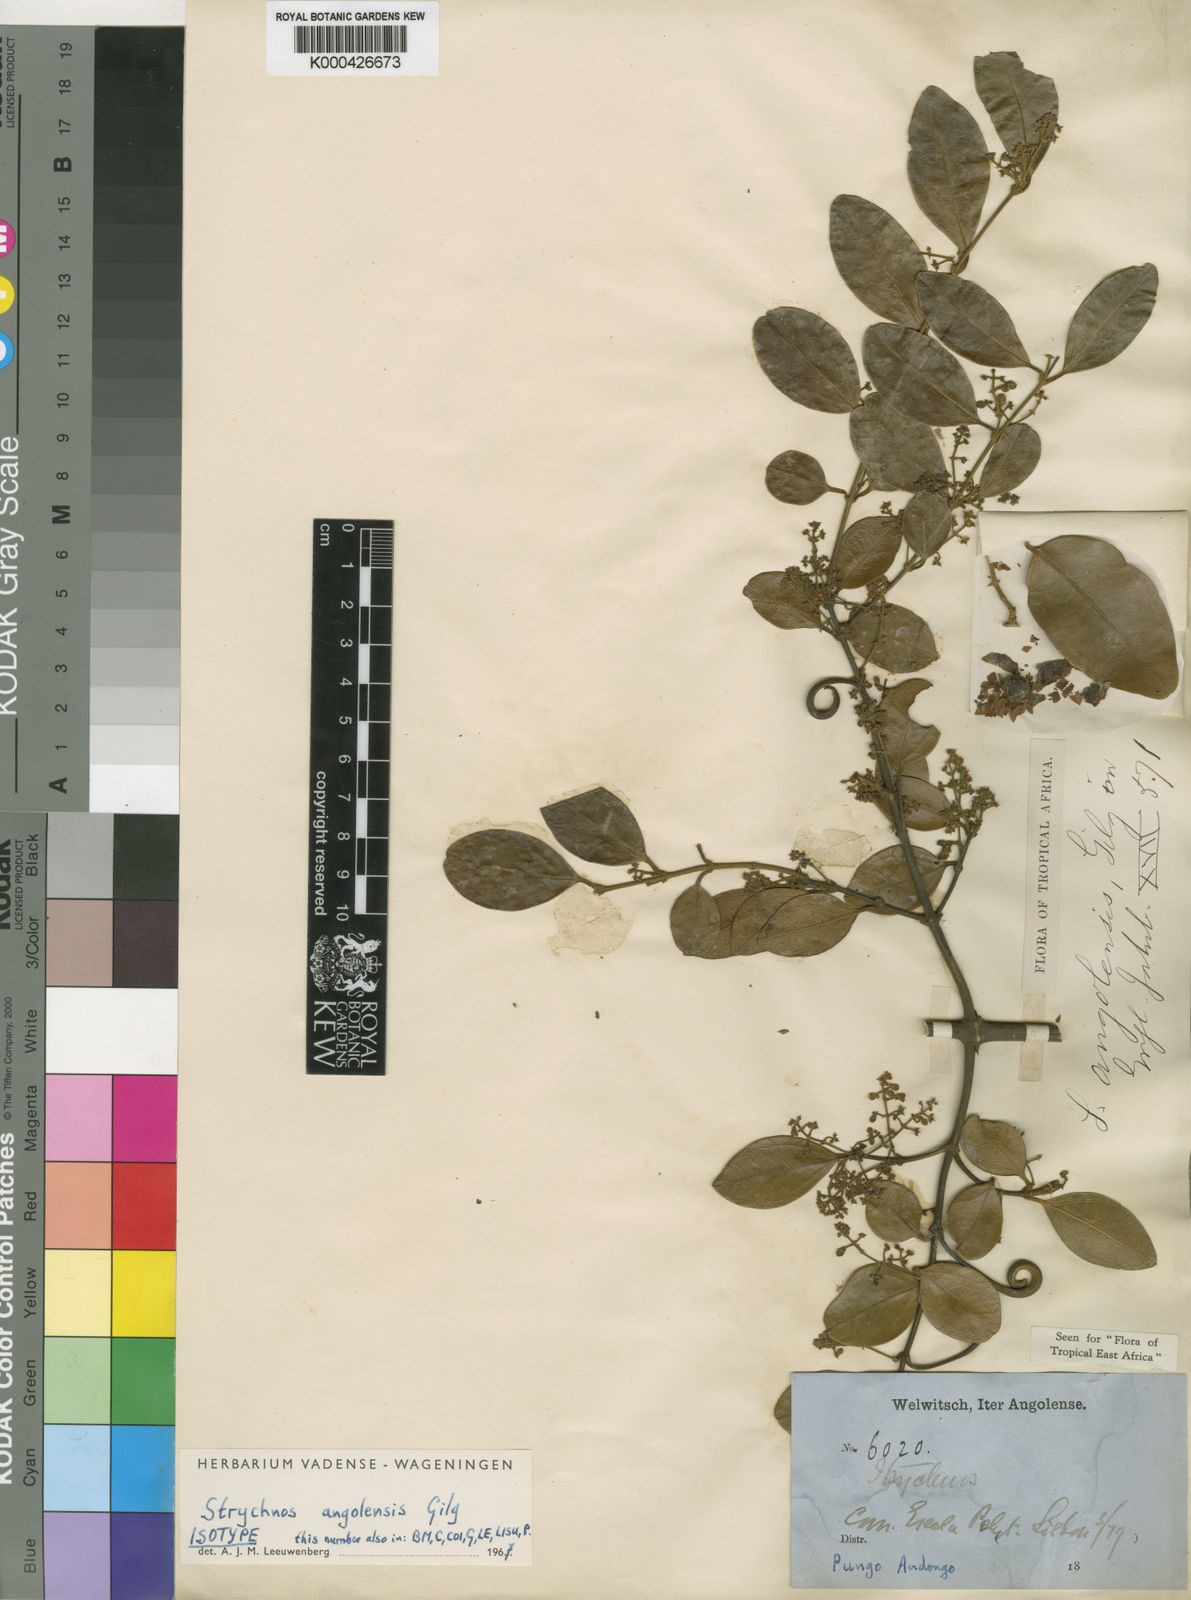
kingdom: Plantae
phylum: Tracheophyta
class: Magnoliopsida
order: Gentianales
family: Loganiaceae
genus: Strychnos
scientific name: Strychnos angolensis
